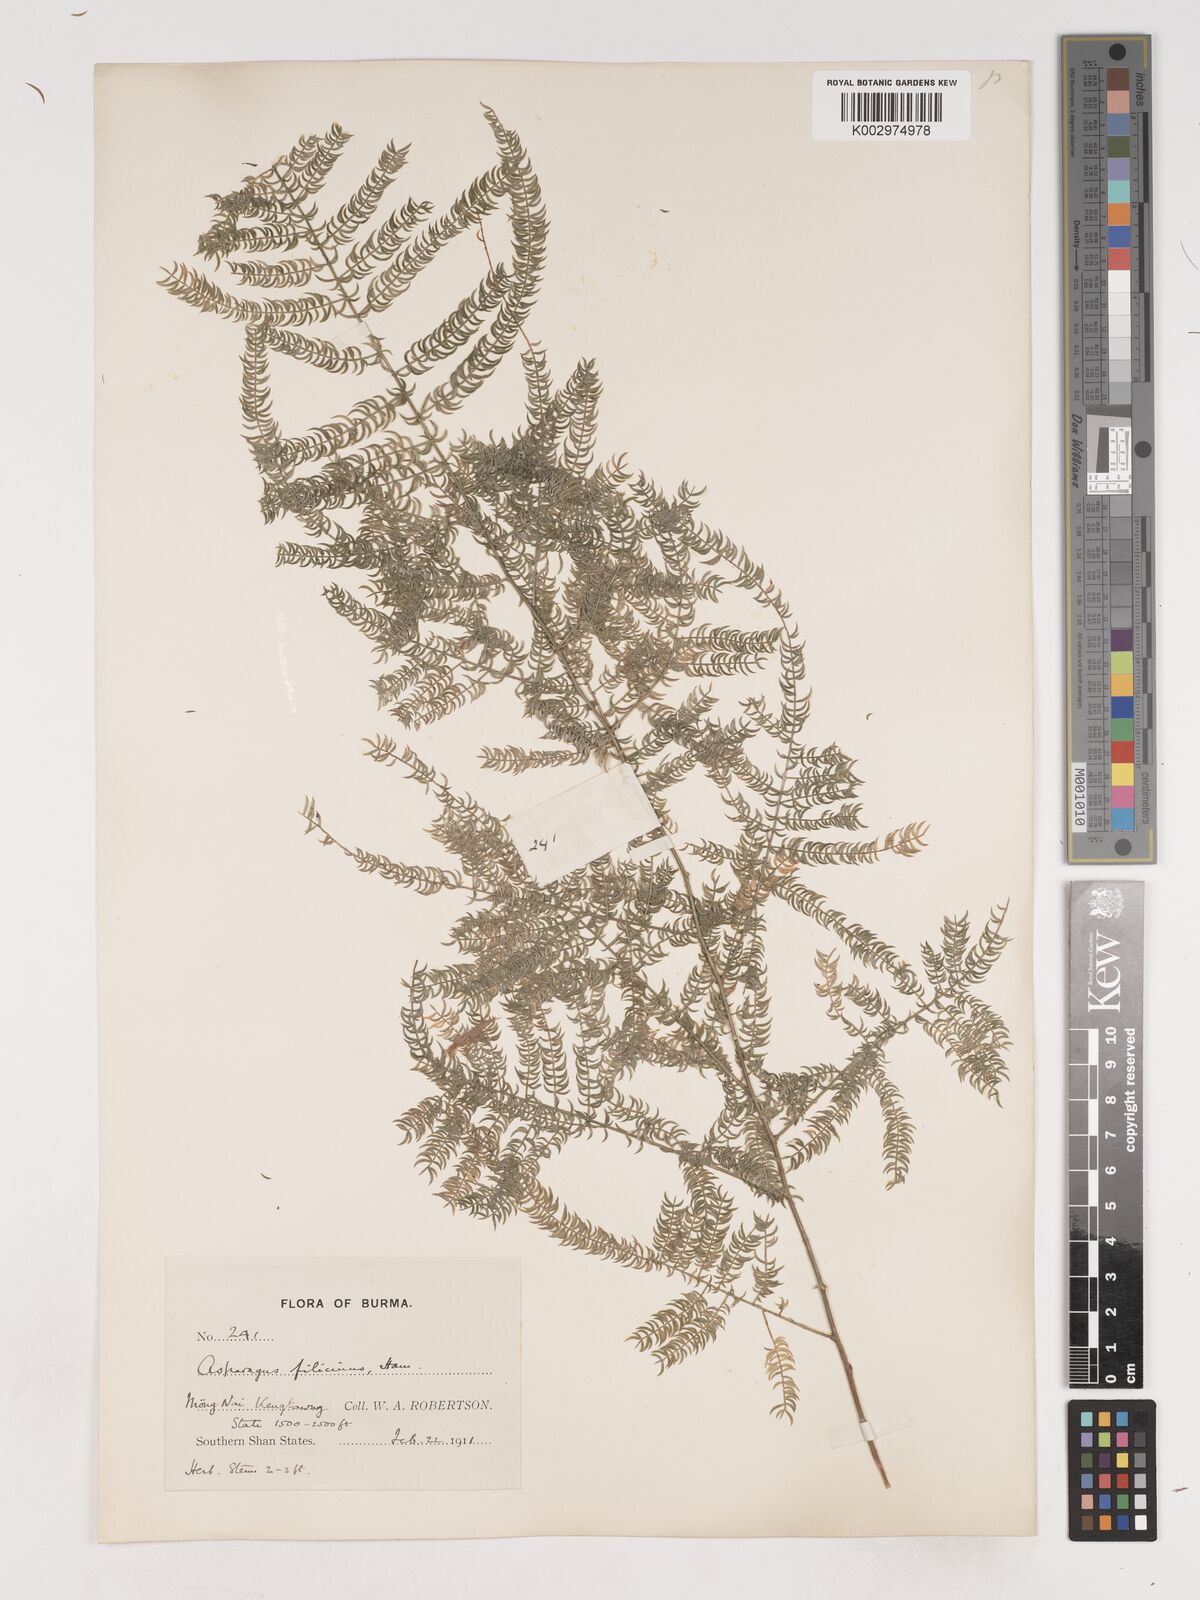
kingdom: Plantae
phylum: Tracheophyta
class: Liliopsida
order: Asparagales
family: Asparagaceae
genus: Asparagus
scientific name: Asparagus filicinus
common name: Fern asparagus
